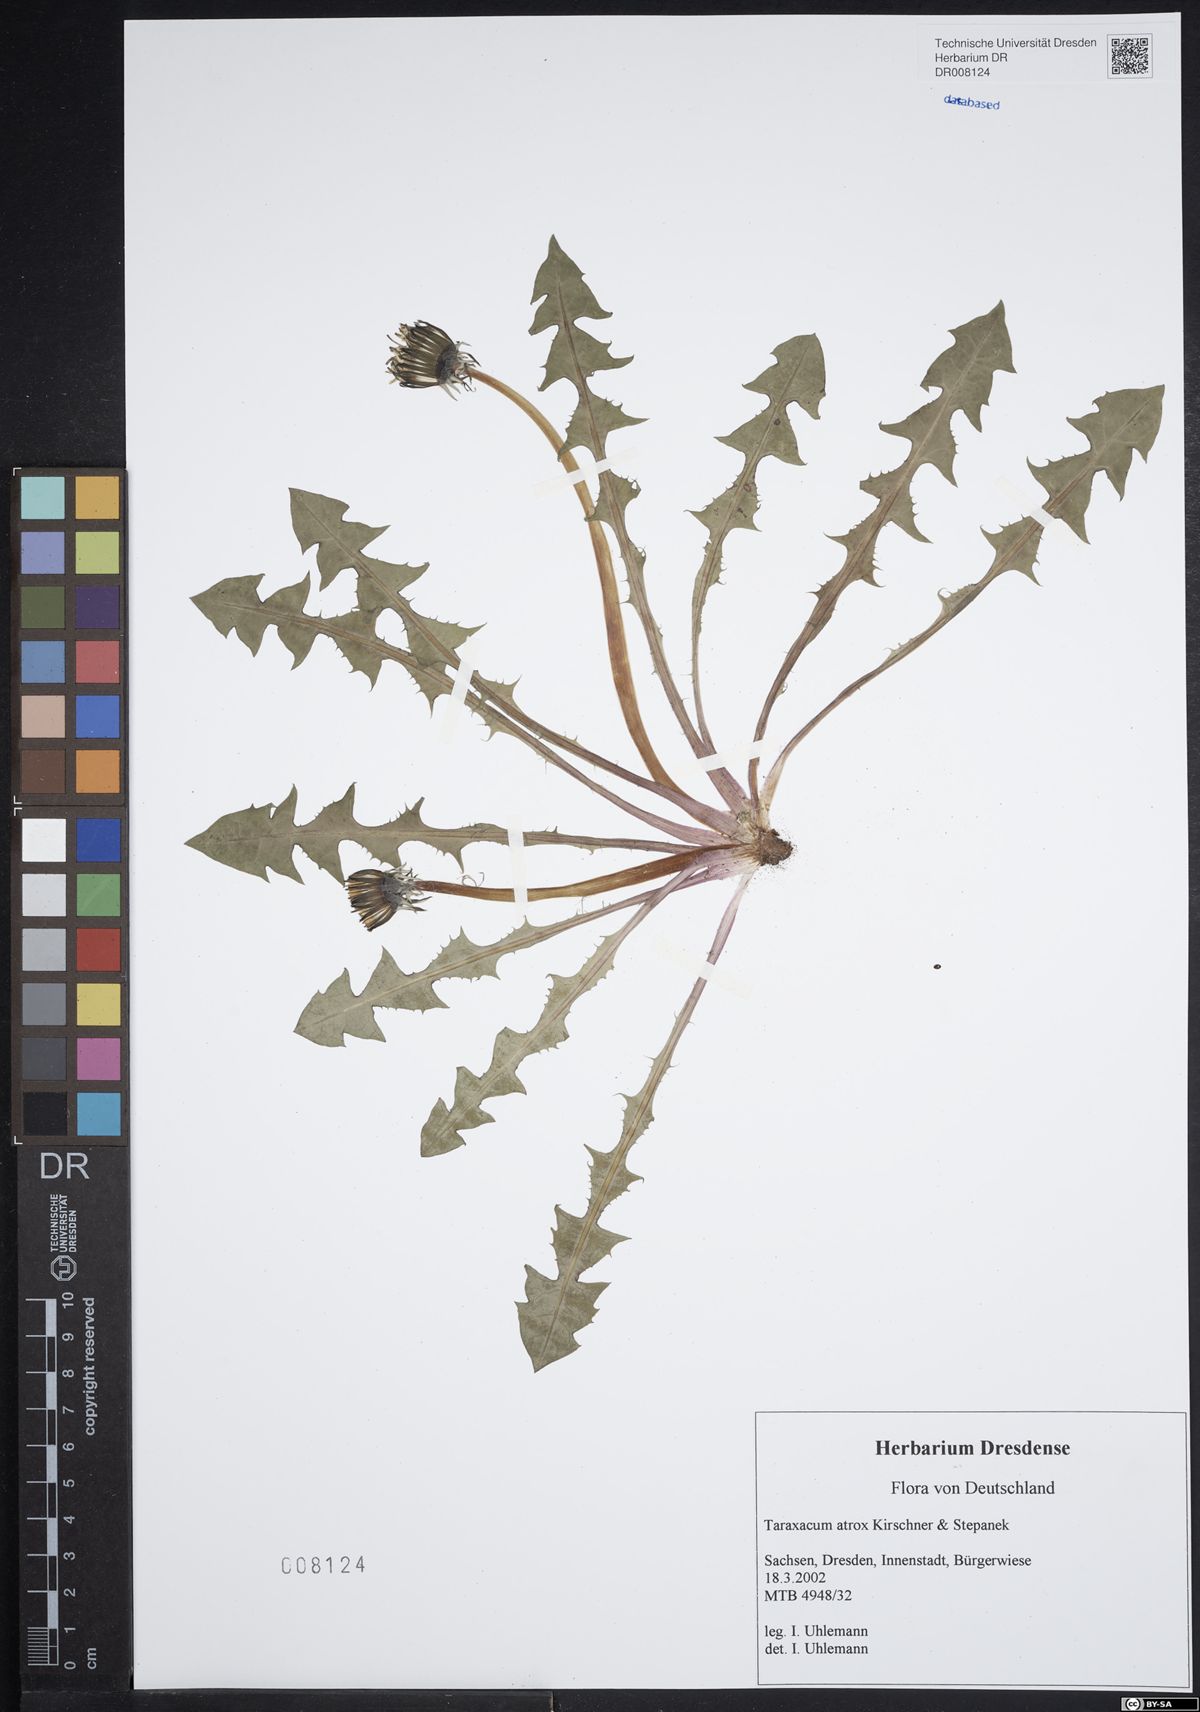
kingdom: Plantae
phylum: Tracheophyta
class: Magnoliopsida
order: Asterales
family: Asteraceae
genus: Taraxacum
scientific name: Taraxacum atrox
